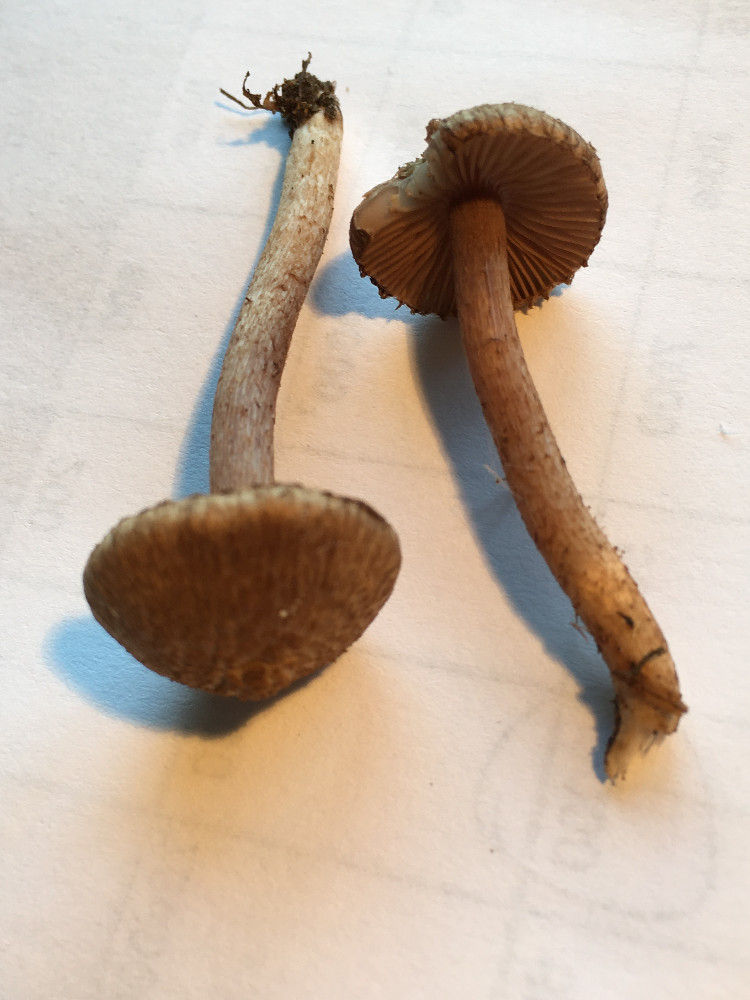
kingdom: Fungi
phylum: Basidiomycota
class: Agaricomycetes
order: Agaricales
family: Inocybaceae
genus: Inocybe
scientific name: Inocybe cincinnata
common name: lillabladet trævlhat
